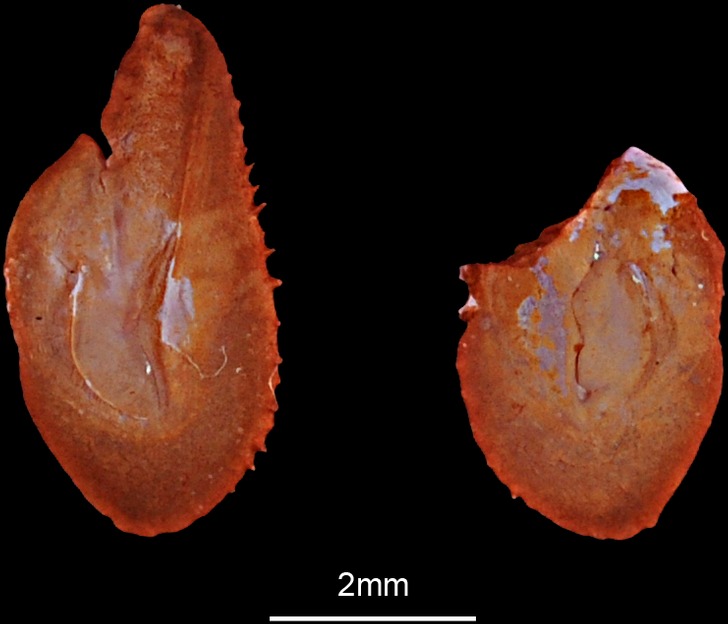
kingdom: Animalia
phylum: Chordata
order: Clupeiformes
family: Engraulidae
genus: Stolephorus
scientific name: Stolephorus
